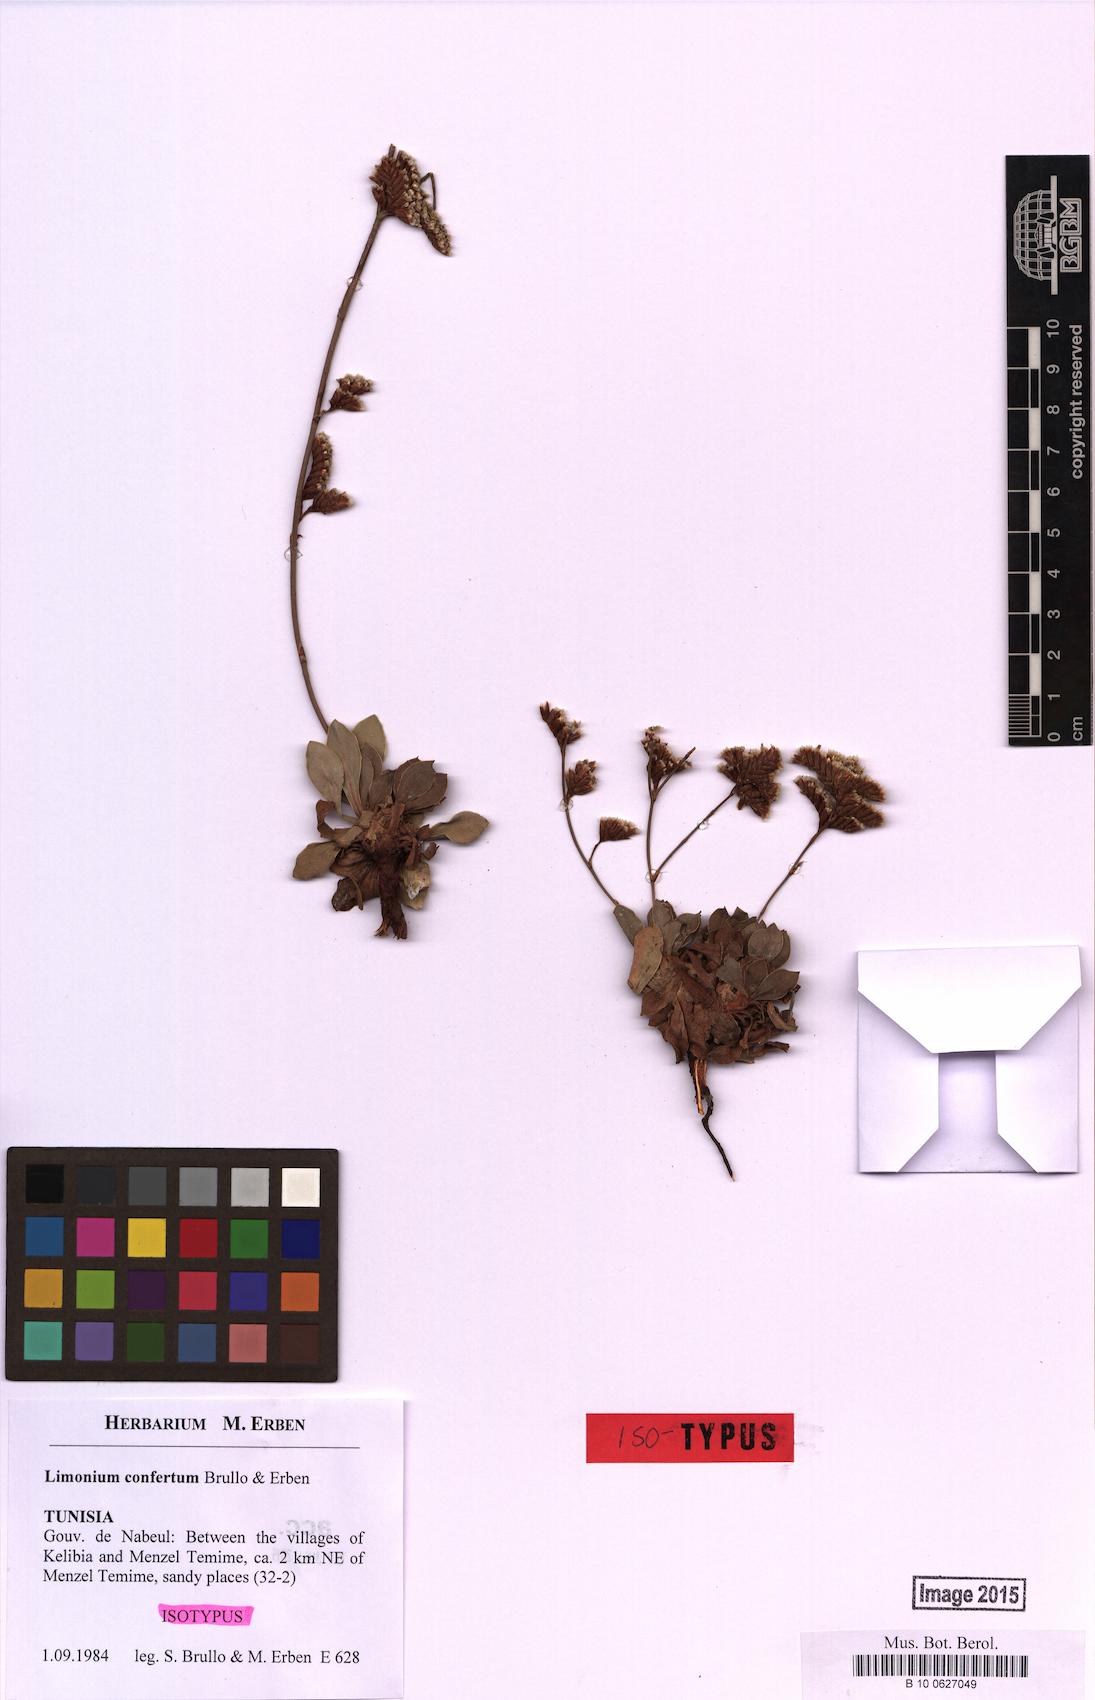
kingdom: Plantae
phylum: Tracheophyta
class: Magnoliopsida
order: Caryophyllales
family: Plumbaginaceae
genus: Limonium
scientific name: Limonium confertum
